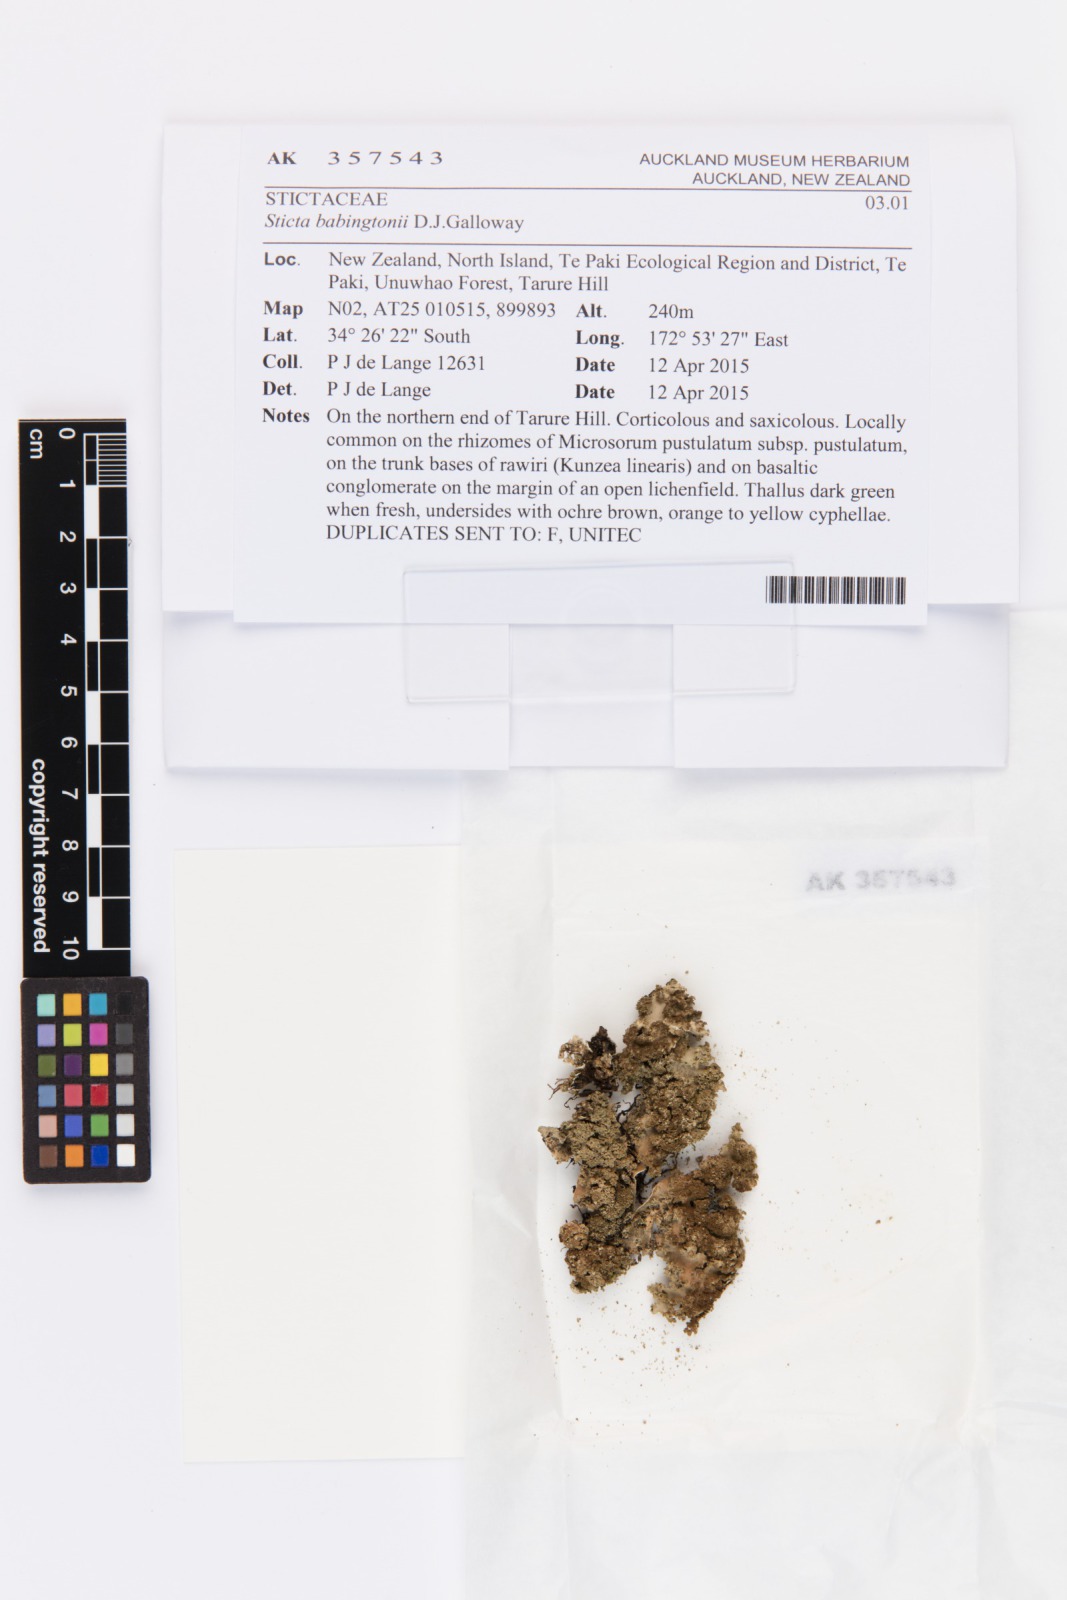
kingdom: Fungi
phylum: Ascomycota
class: Lecanoromycetes
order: Peltigerales
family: Lobariaceae
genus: Sticta
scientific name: Sticta babingtonii
